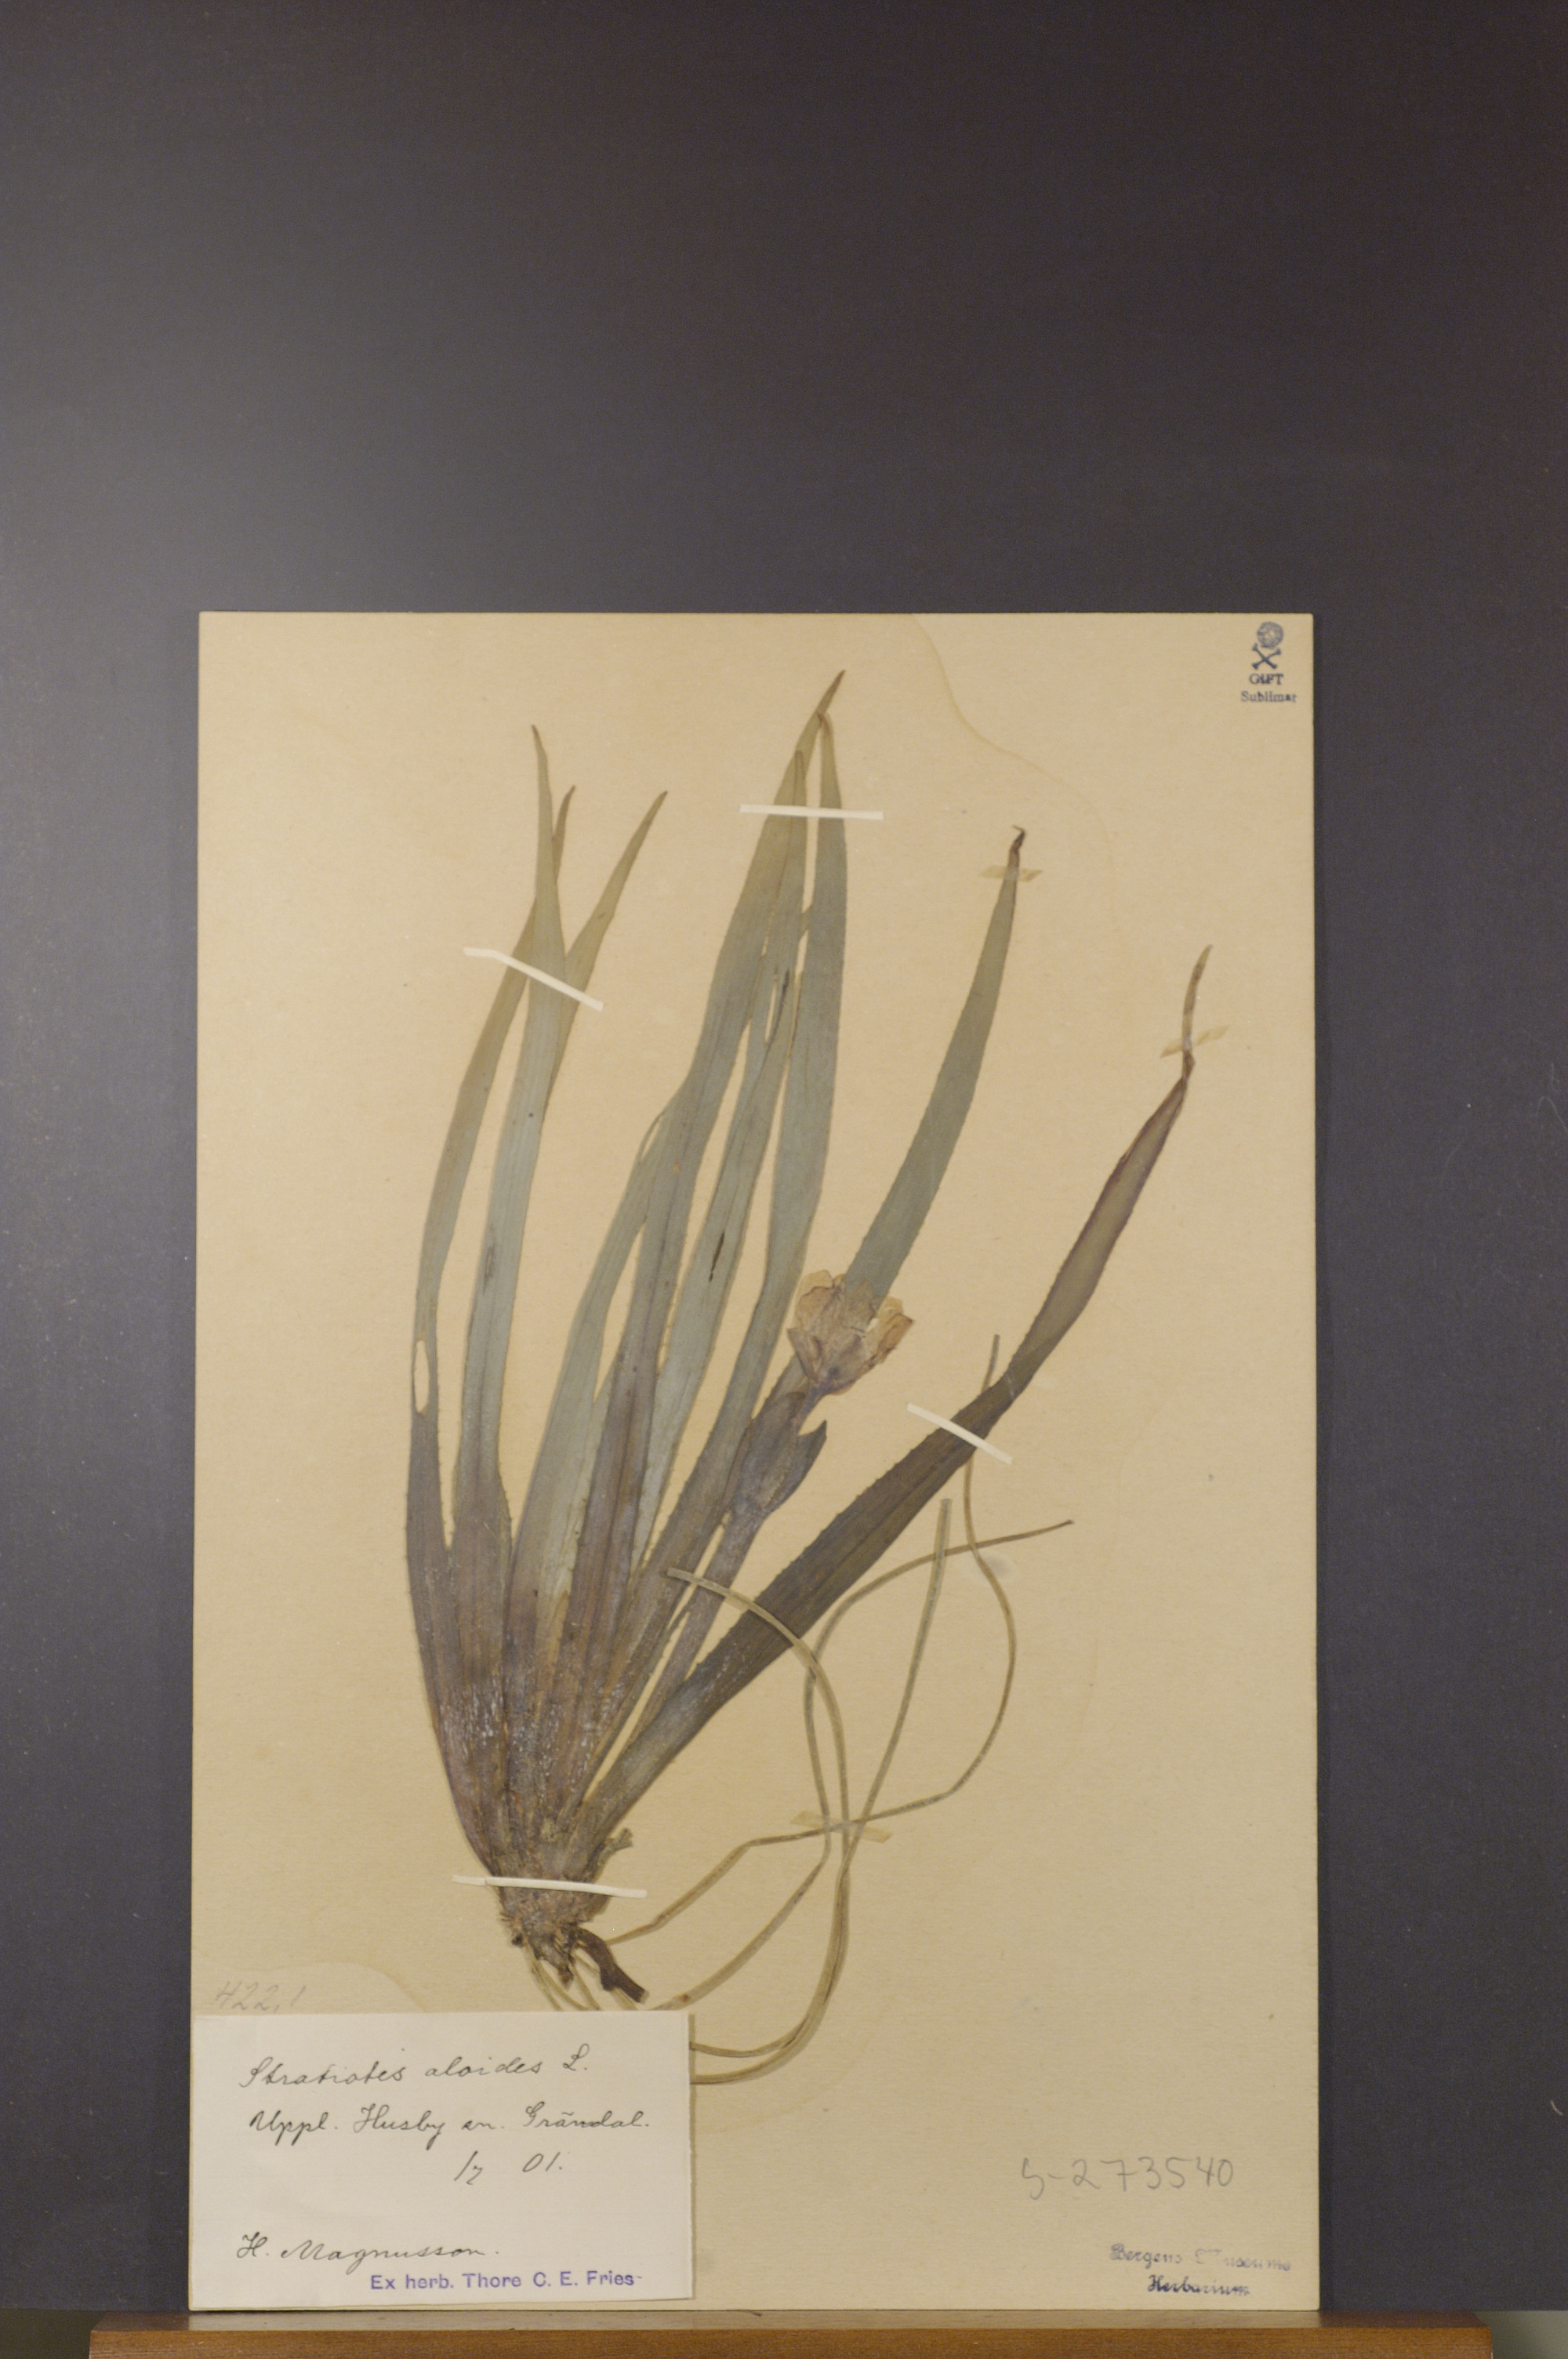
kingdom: Plantae
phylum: Tracheophyta
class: Liliopsida
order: Alismatales
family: Hydrocharitaceae
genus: Stratiotes
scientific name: Stratiotes aloides
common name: Water-soldier
